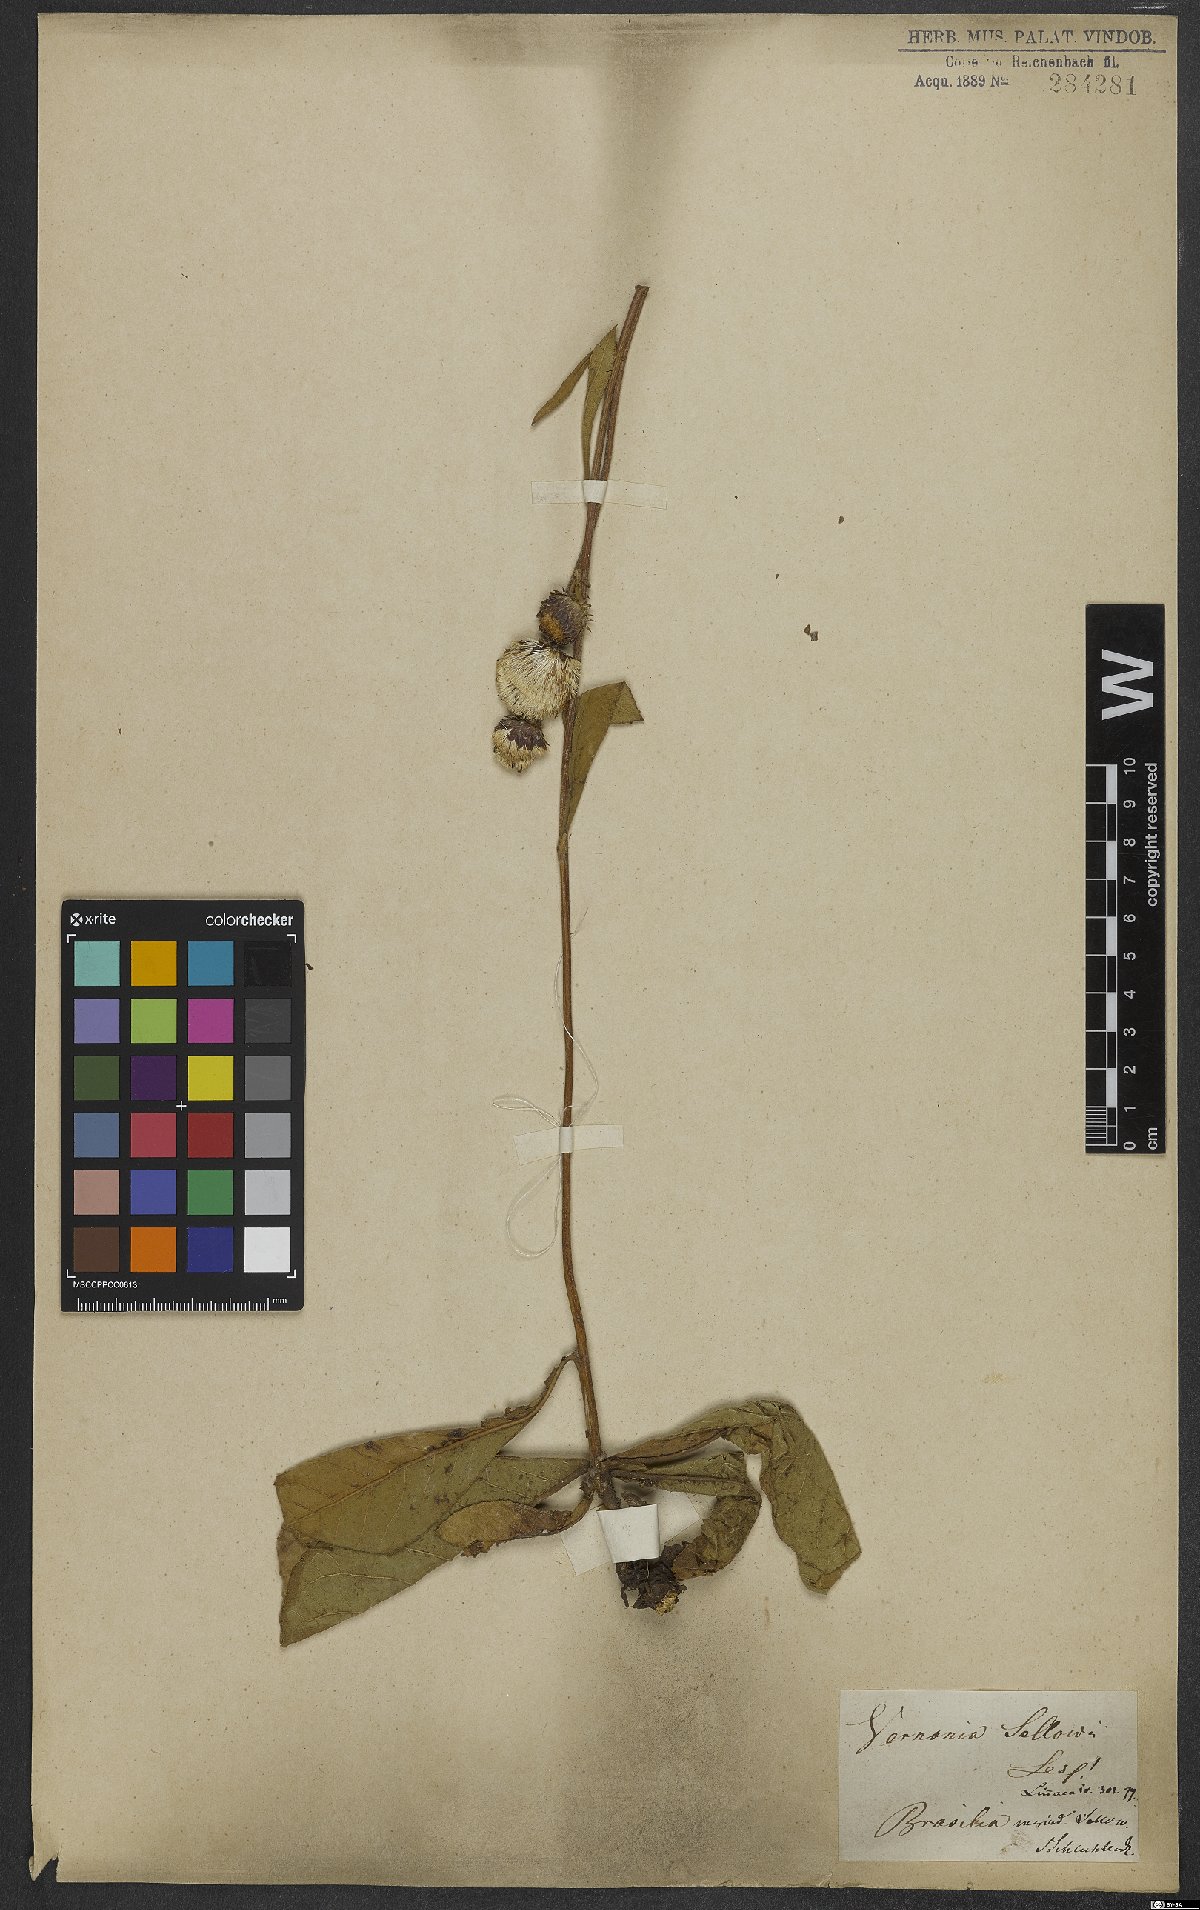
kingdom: Plantae
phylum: Tracheophyta
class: Magnoliopsida
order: Asterales
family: Asteraceae
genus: Lessingianthus
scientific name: Lessingianthus sellowii
